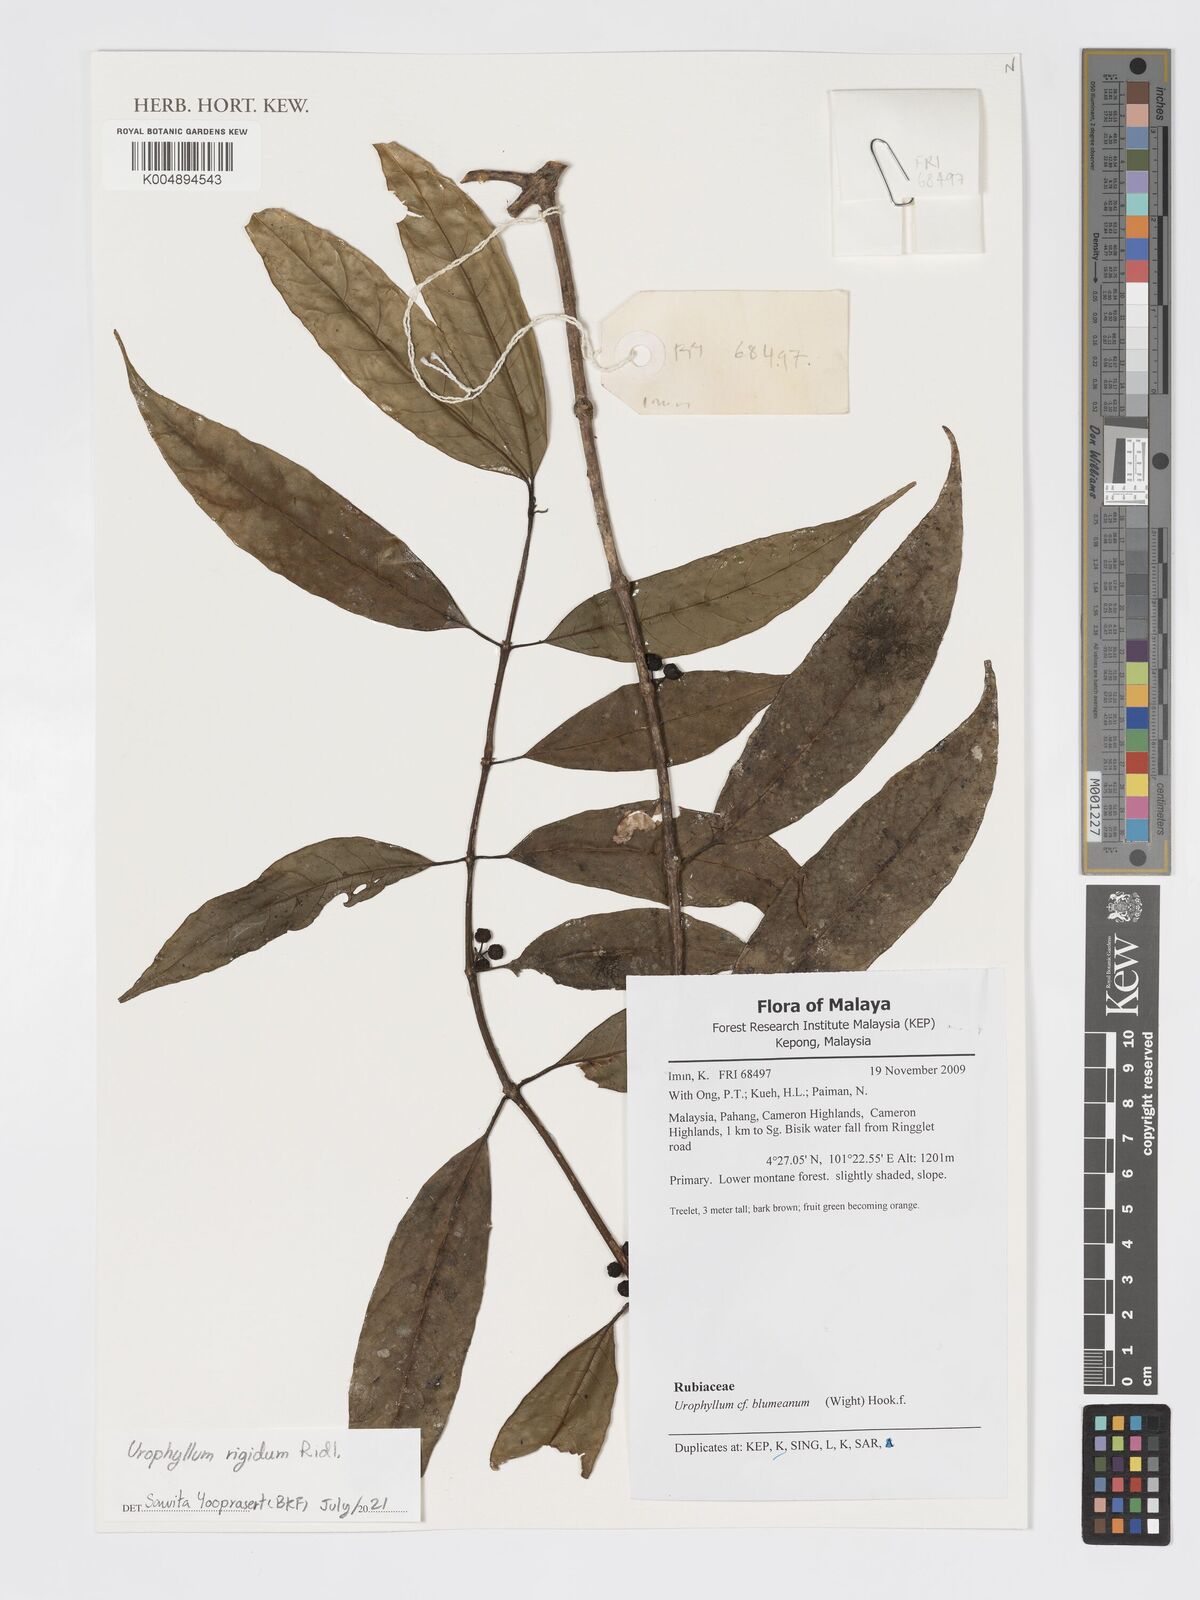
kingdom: Plantae
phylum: Tracheophyta
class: Magnoliopsida
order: Gentianales
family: Rubiaceae
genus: Urophyllum
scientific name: Urophyllum leucophlaeum
